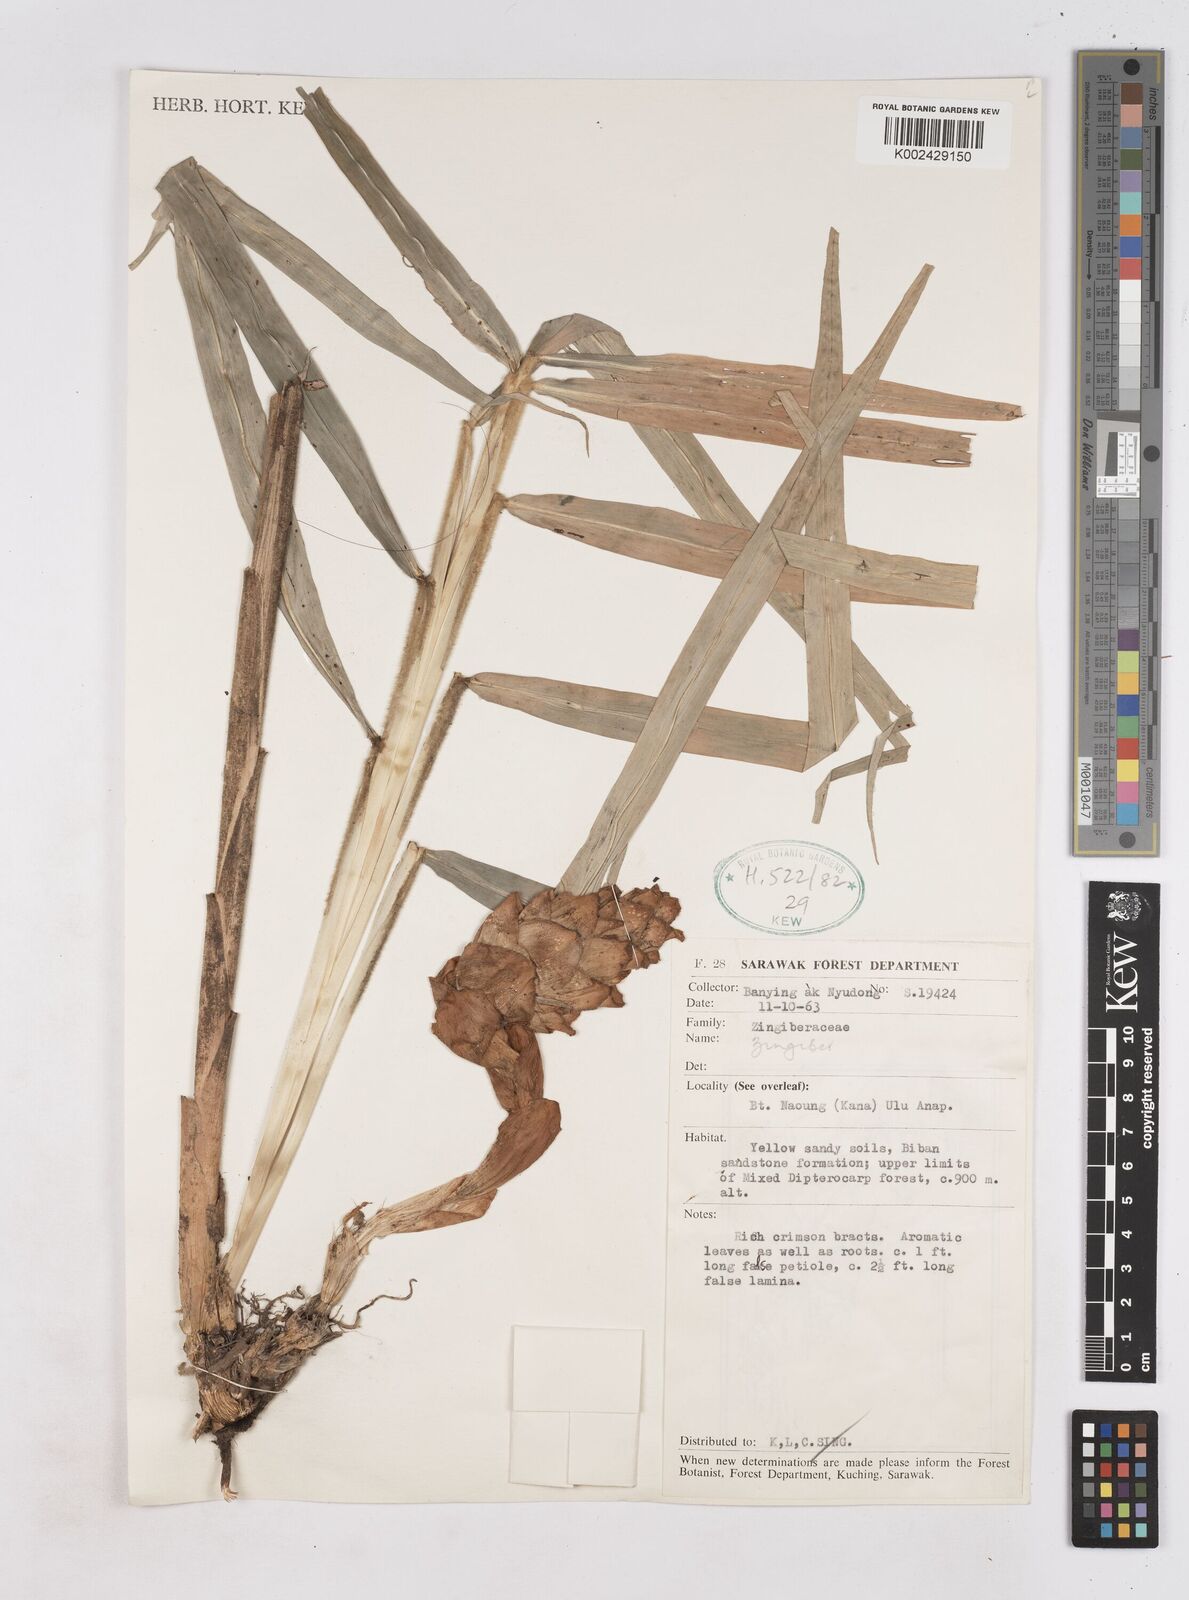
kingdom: Plantae
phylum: Tracheophyta
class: Liliopsida
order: Zingiberales
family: Zingiberaceae
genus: Zingiber
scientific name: Zingiber
